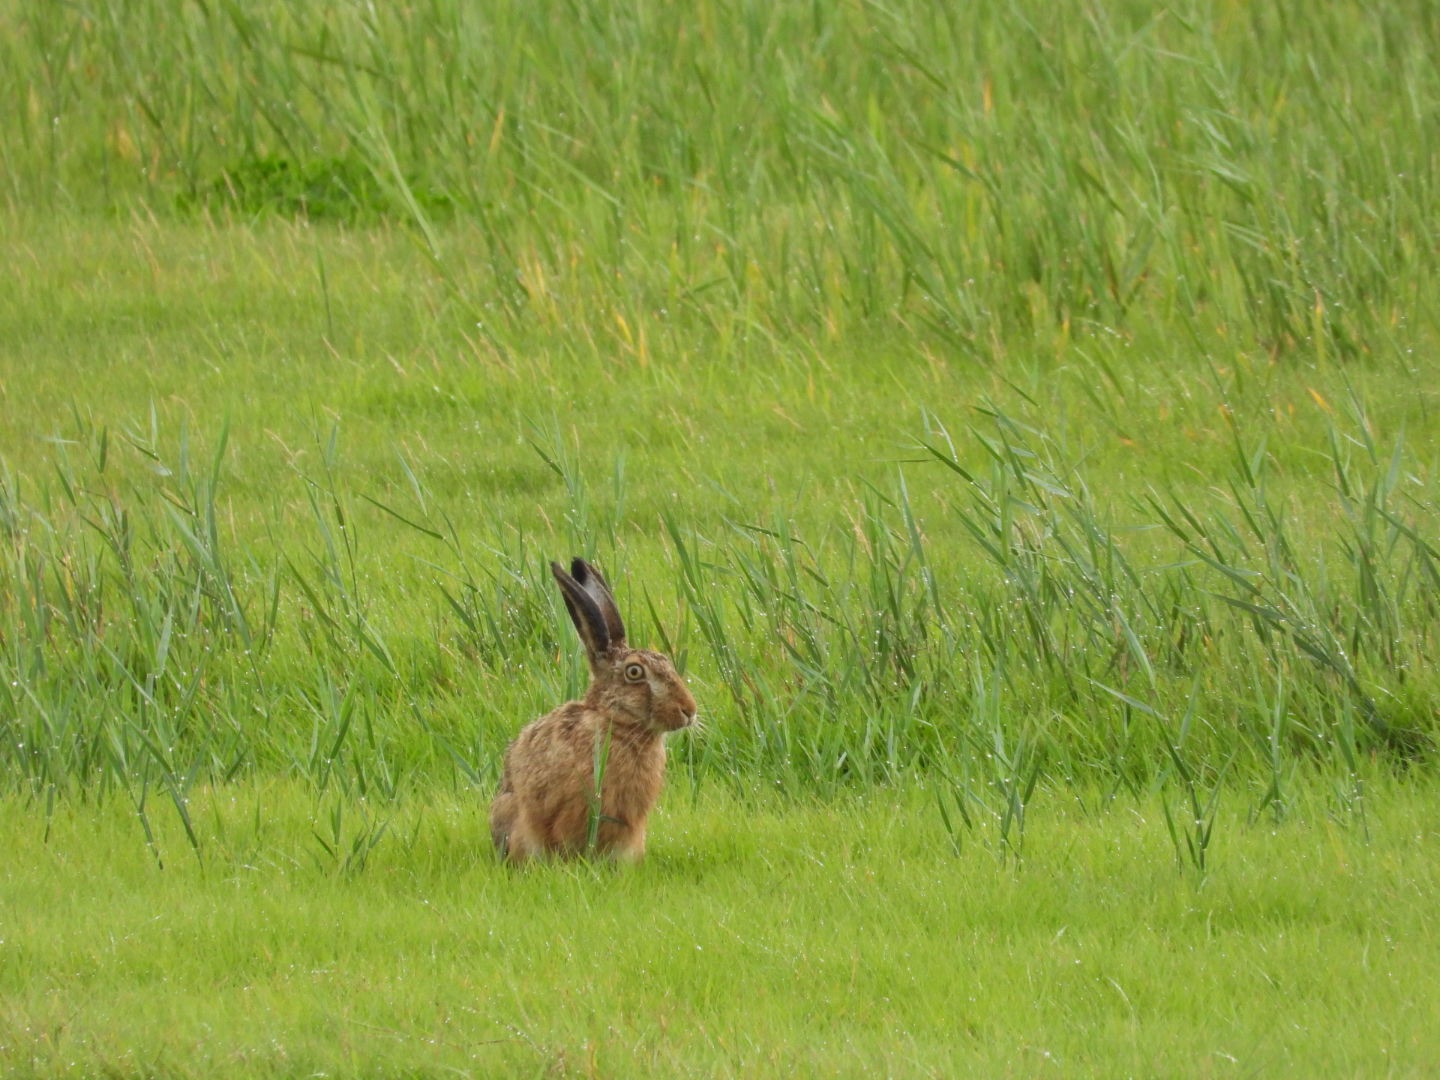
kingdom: Animalia
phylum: Chordata
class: Mammalia
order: Lagomorpha
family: Leporidae
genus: Lepus
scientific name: Lepus europaeus
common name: Hare
